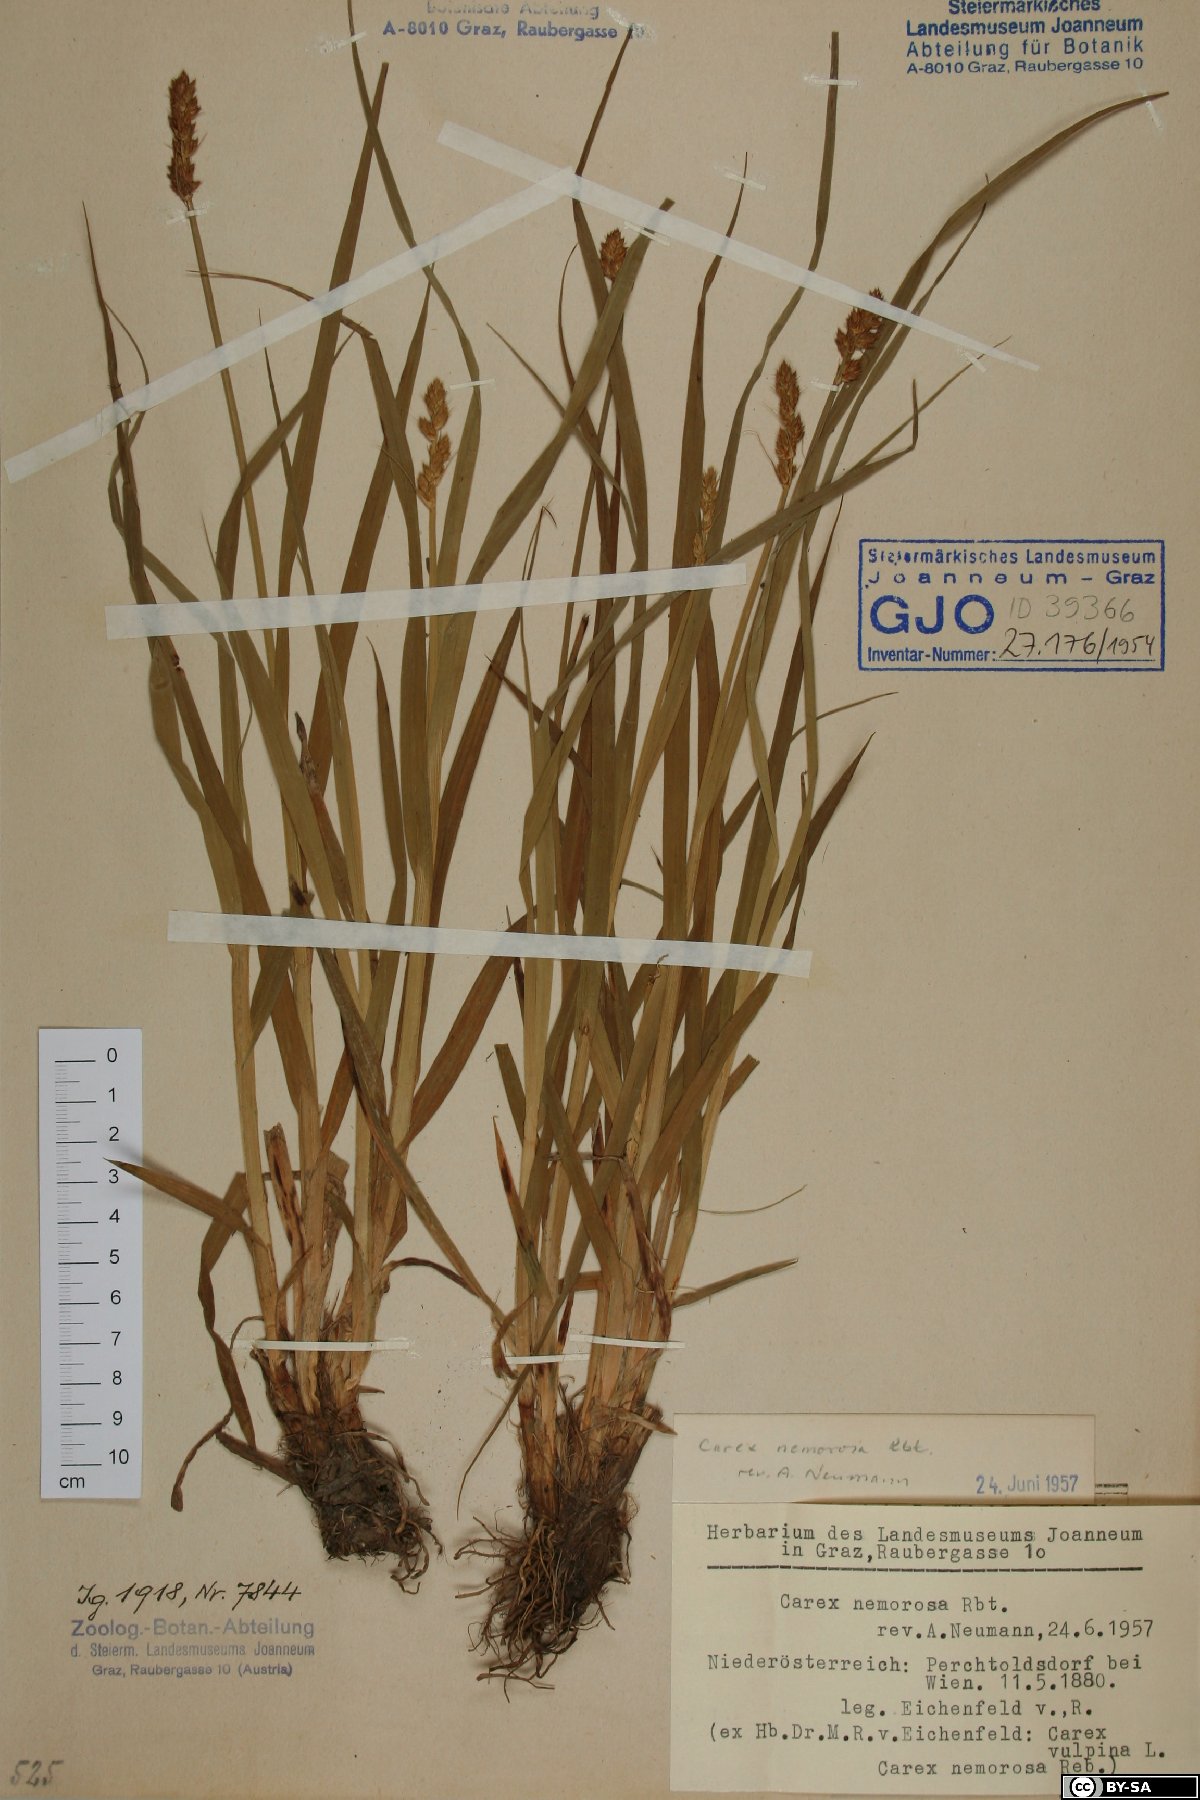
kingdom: Plantae
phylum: Tracheophyta
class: Liliopsida
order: Poales
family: Cyperaceae
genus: Carex
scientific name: Carex otrubae
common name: False fox-sedge
